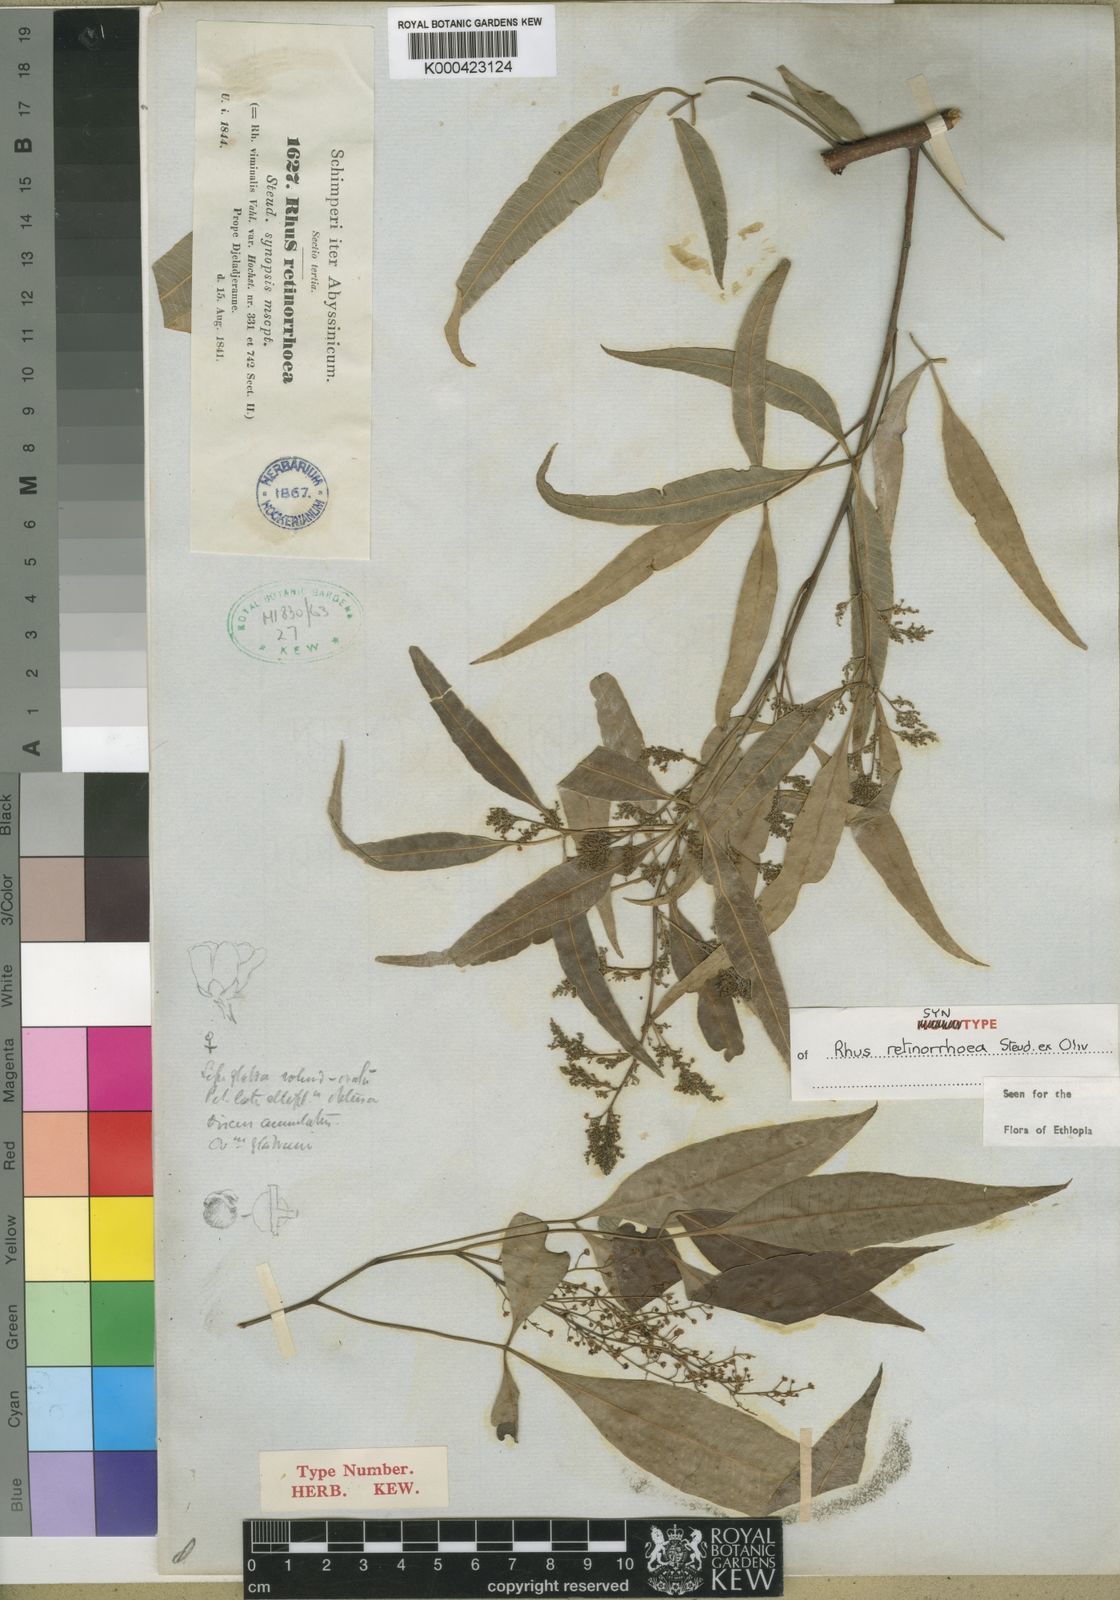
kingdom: Plantae
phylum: Tracheophyta
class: Magnoliopsida
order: Sapindales
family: Anacardiaceae
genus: Searsia
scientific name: Searsia retinorrhoea
